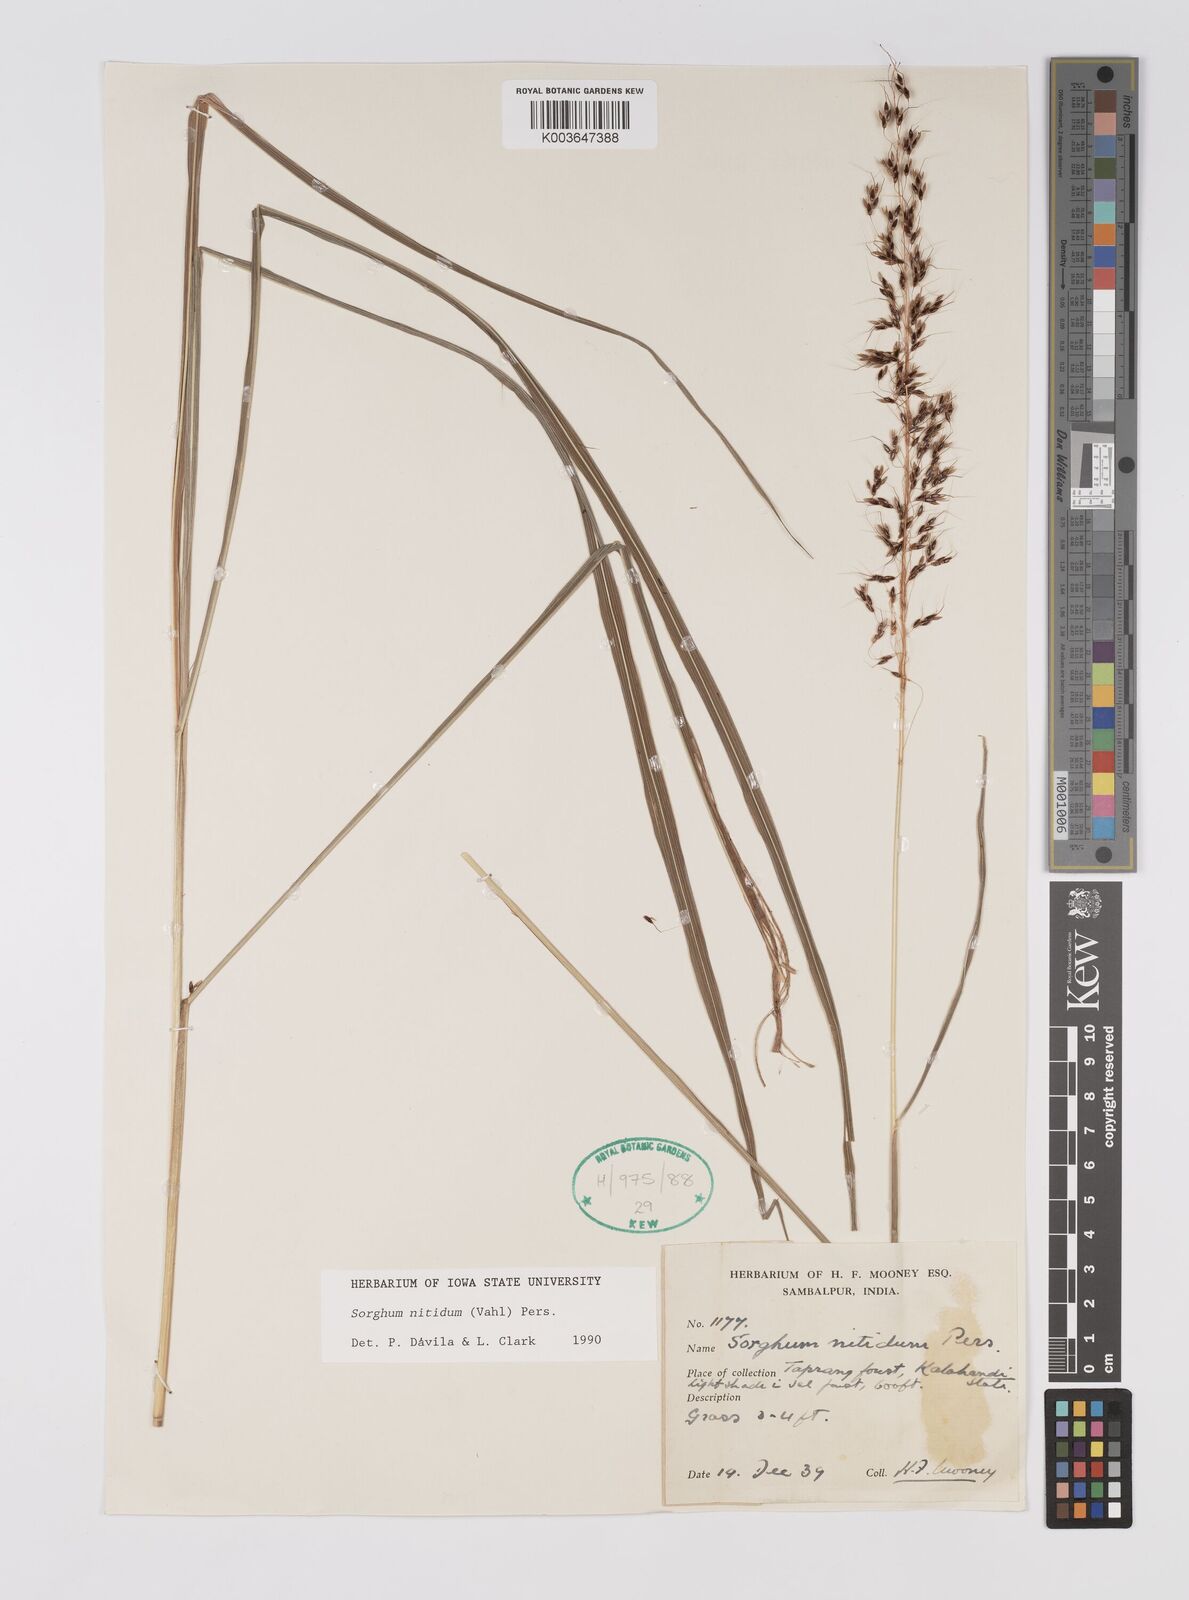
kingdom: Plantae
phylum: Tracheophyta
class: Liliopsida
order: Poales
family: Poaceae
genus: Sorghum
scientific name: Sorghum nitidum
